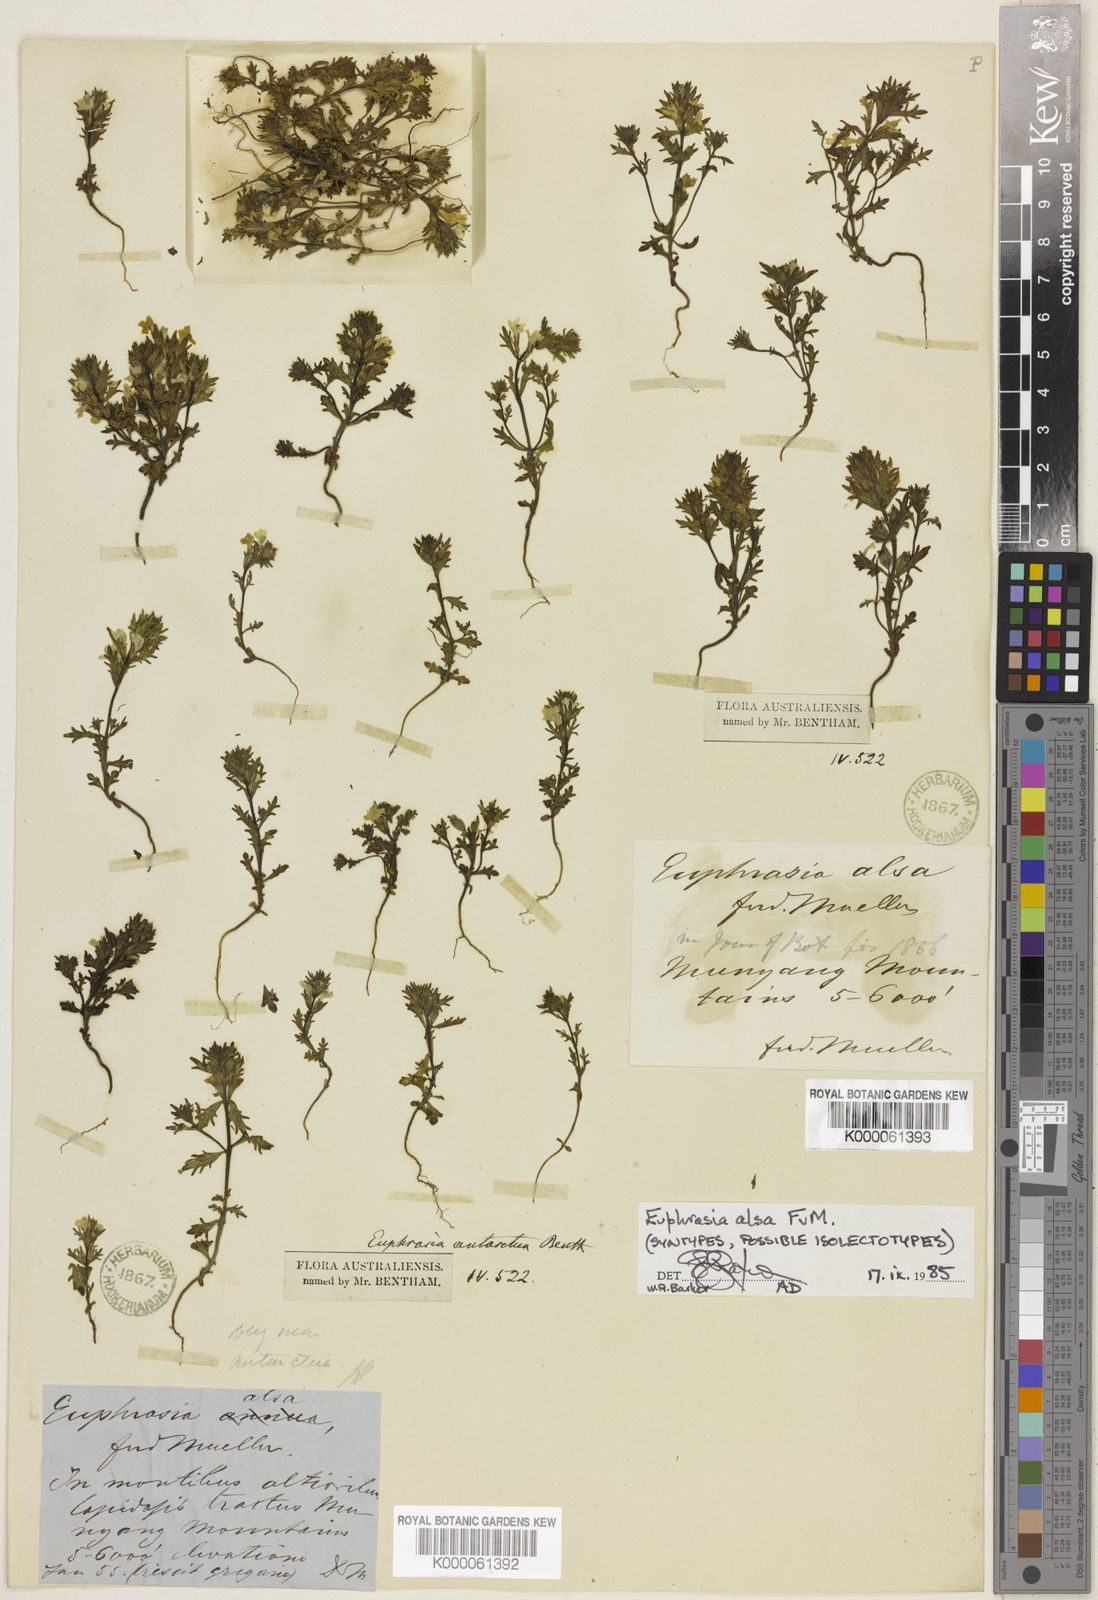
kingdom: Plantae
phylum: Tracheophyta
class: Magnoliopsida
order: Lamiales
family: Orobanchaceae
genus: Euphrasia
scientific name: Euphrasia alsa
